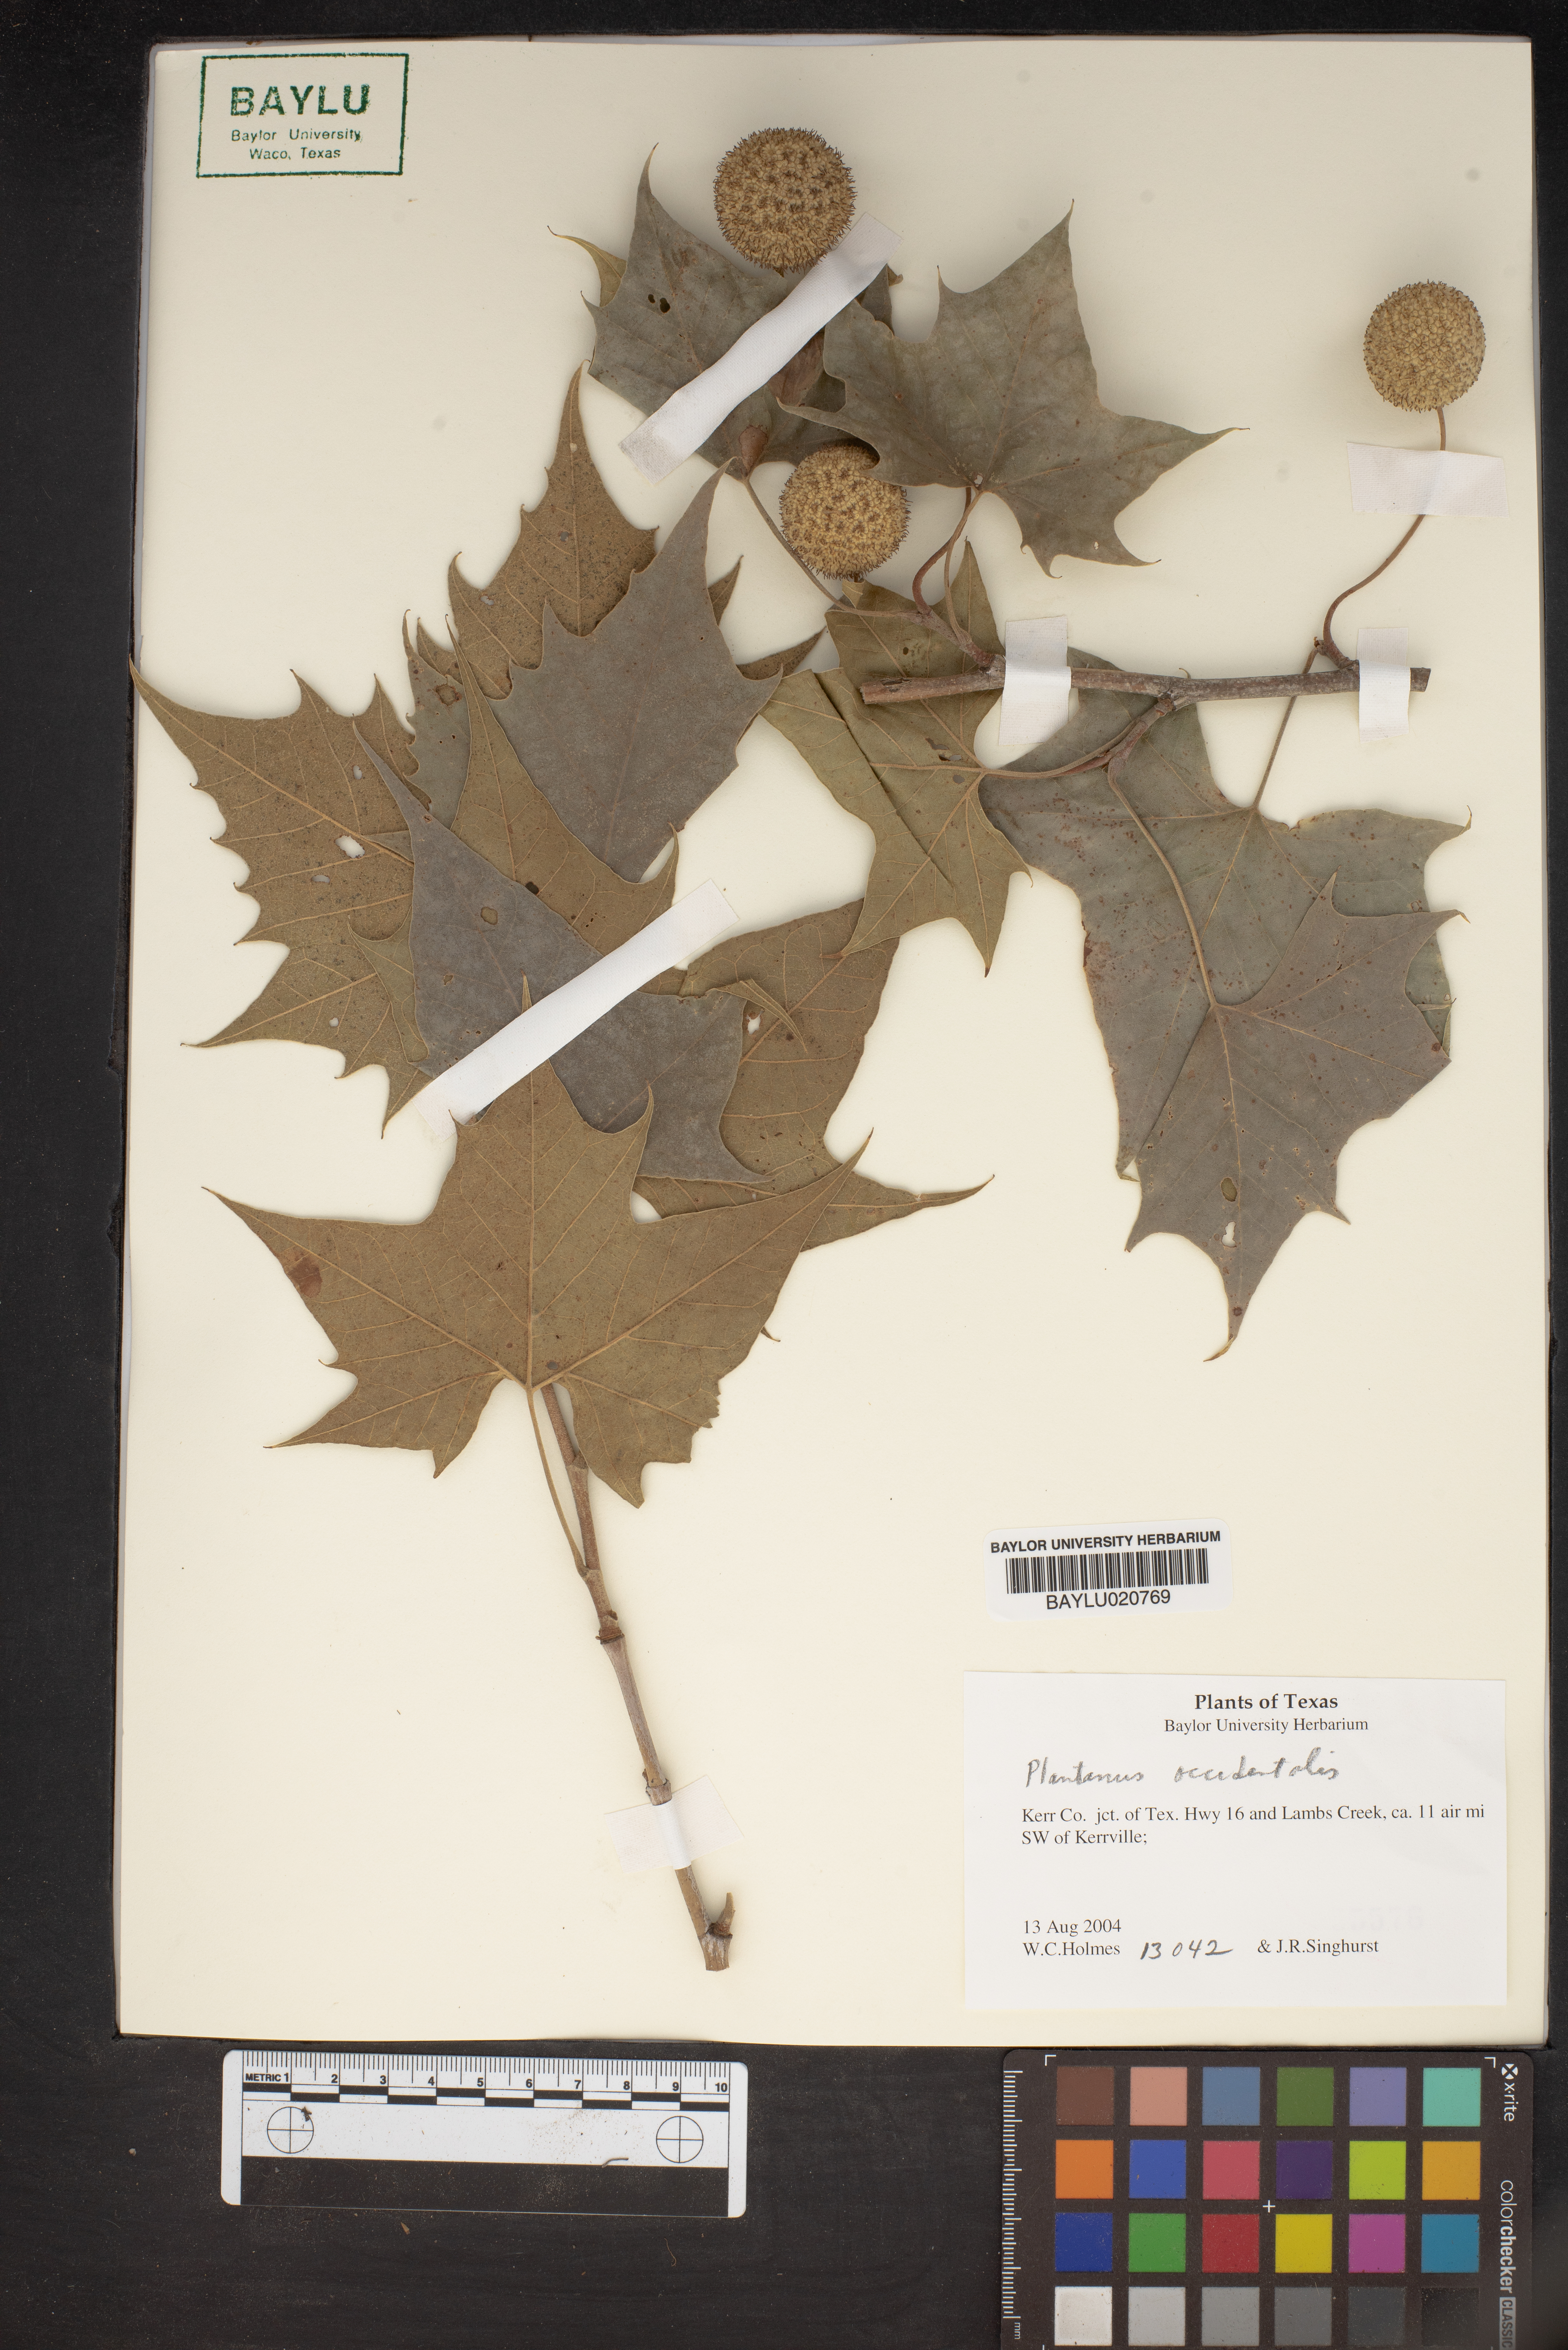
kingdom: Plantae
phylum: Tracheophyta
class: Magnoliopsida
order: Proteales
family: Platanaceae
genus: Platanus
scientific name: Platanus occidentalis
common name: American sycamore
